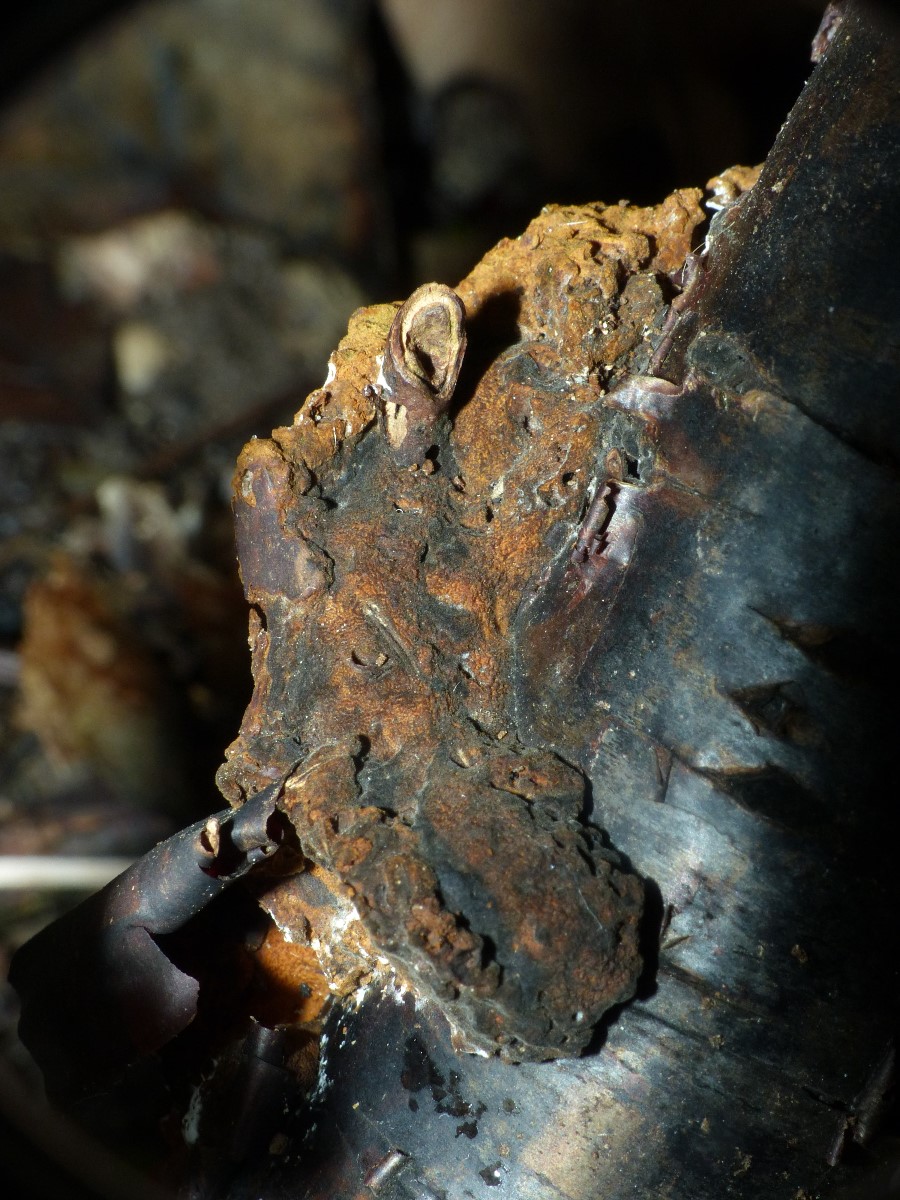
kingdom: Fungi
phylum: Basidiomycota
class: Agaricomycetes
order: Hymenochaetales
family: Hymenochaetaceae
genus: Phylloporia
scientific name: Phylloporia ribis
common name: ribs-ildporesvamp
